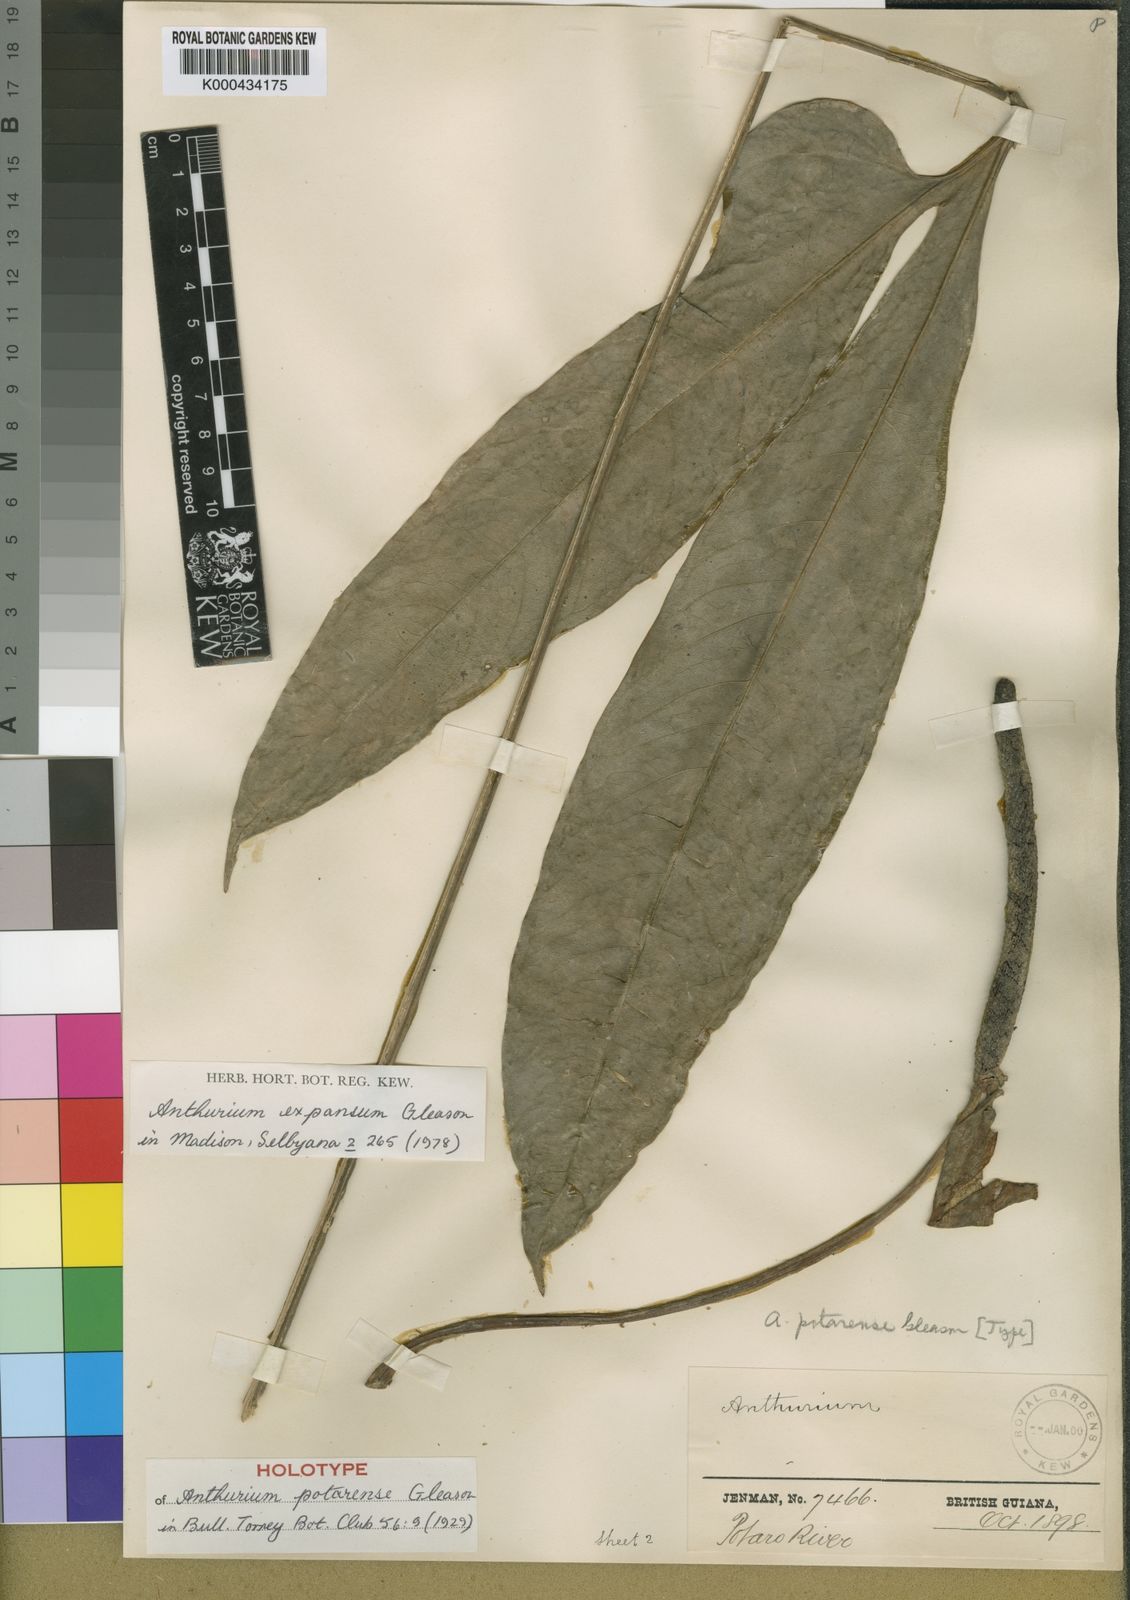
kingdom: Plantae
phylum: Tracheophyta
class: Liliopsida
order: Alismatales
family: Araceae
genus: Anthurium
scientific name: Anthurium expansum
